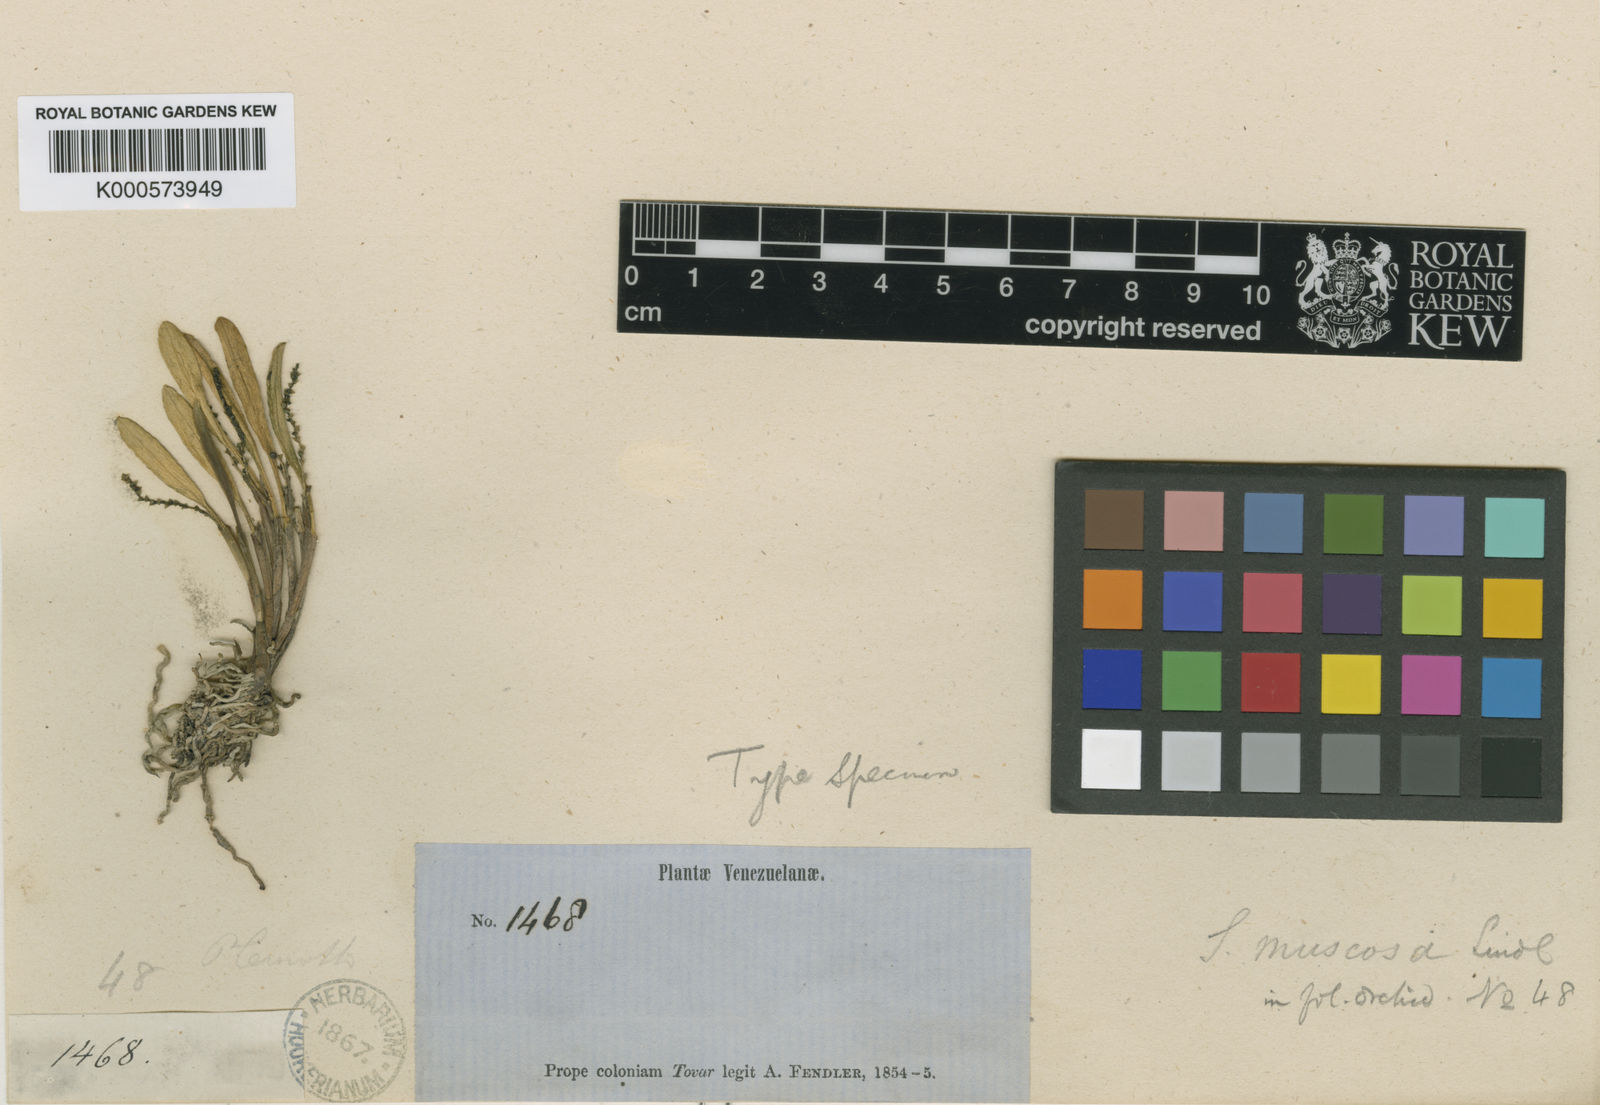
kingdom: Plantae
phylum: Tracheophyta
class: Liliopsida
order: Asparagales
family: Orchidaceae
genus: Stelis
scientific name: Stelis muscosa
